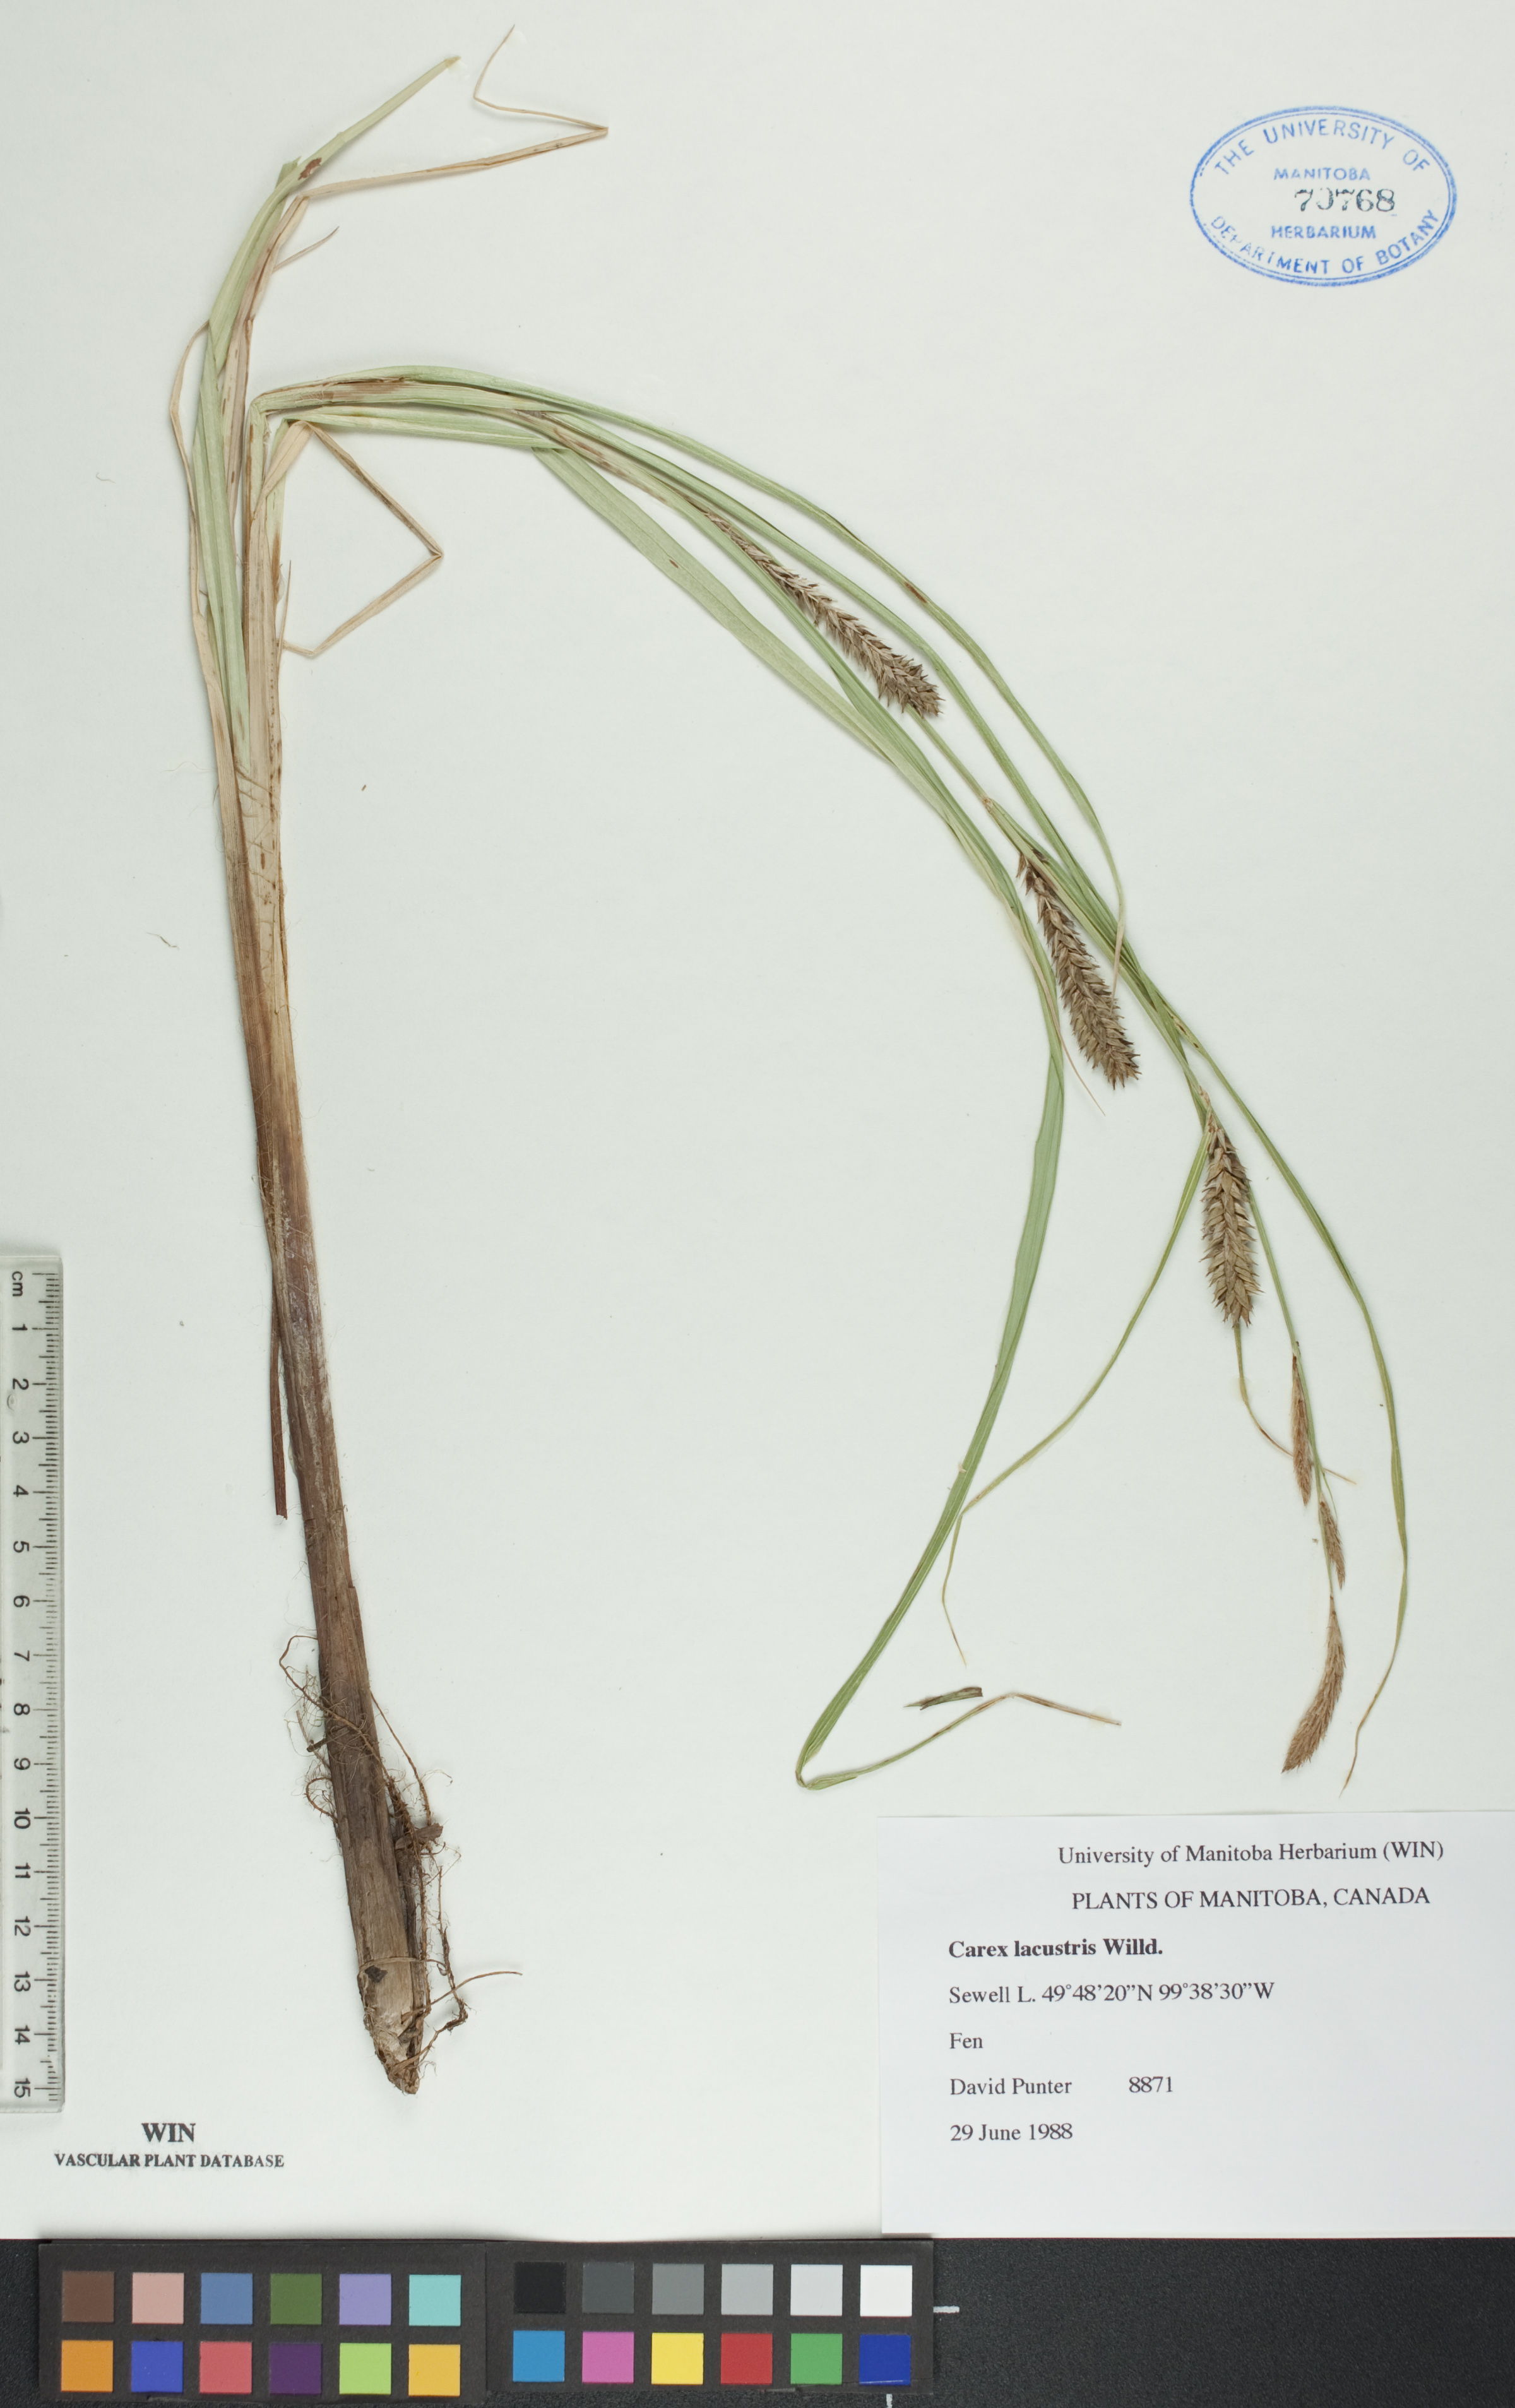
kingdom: Plantae
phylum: Tracheophyta
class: Liliopsida
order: Poales
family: Cyperaceae
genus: Carex
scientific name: Carex lacustris
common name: Common lake sedge
